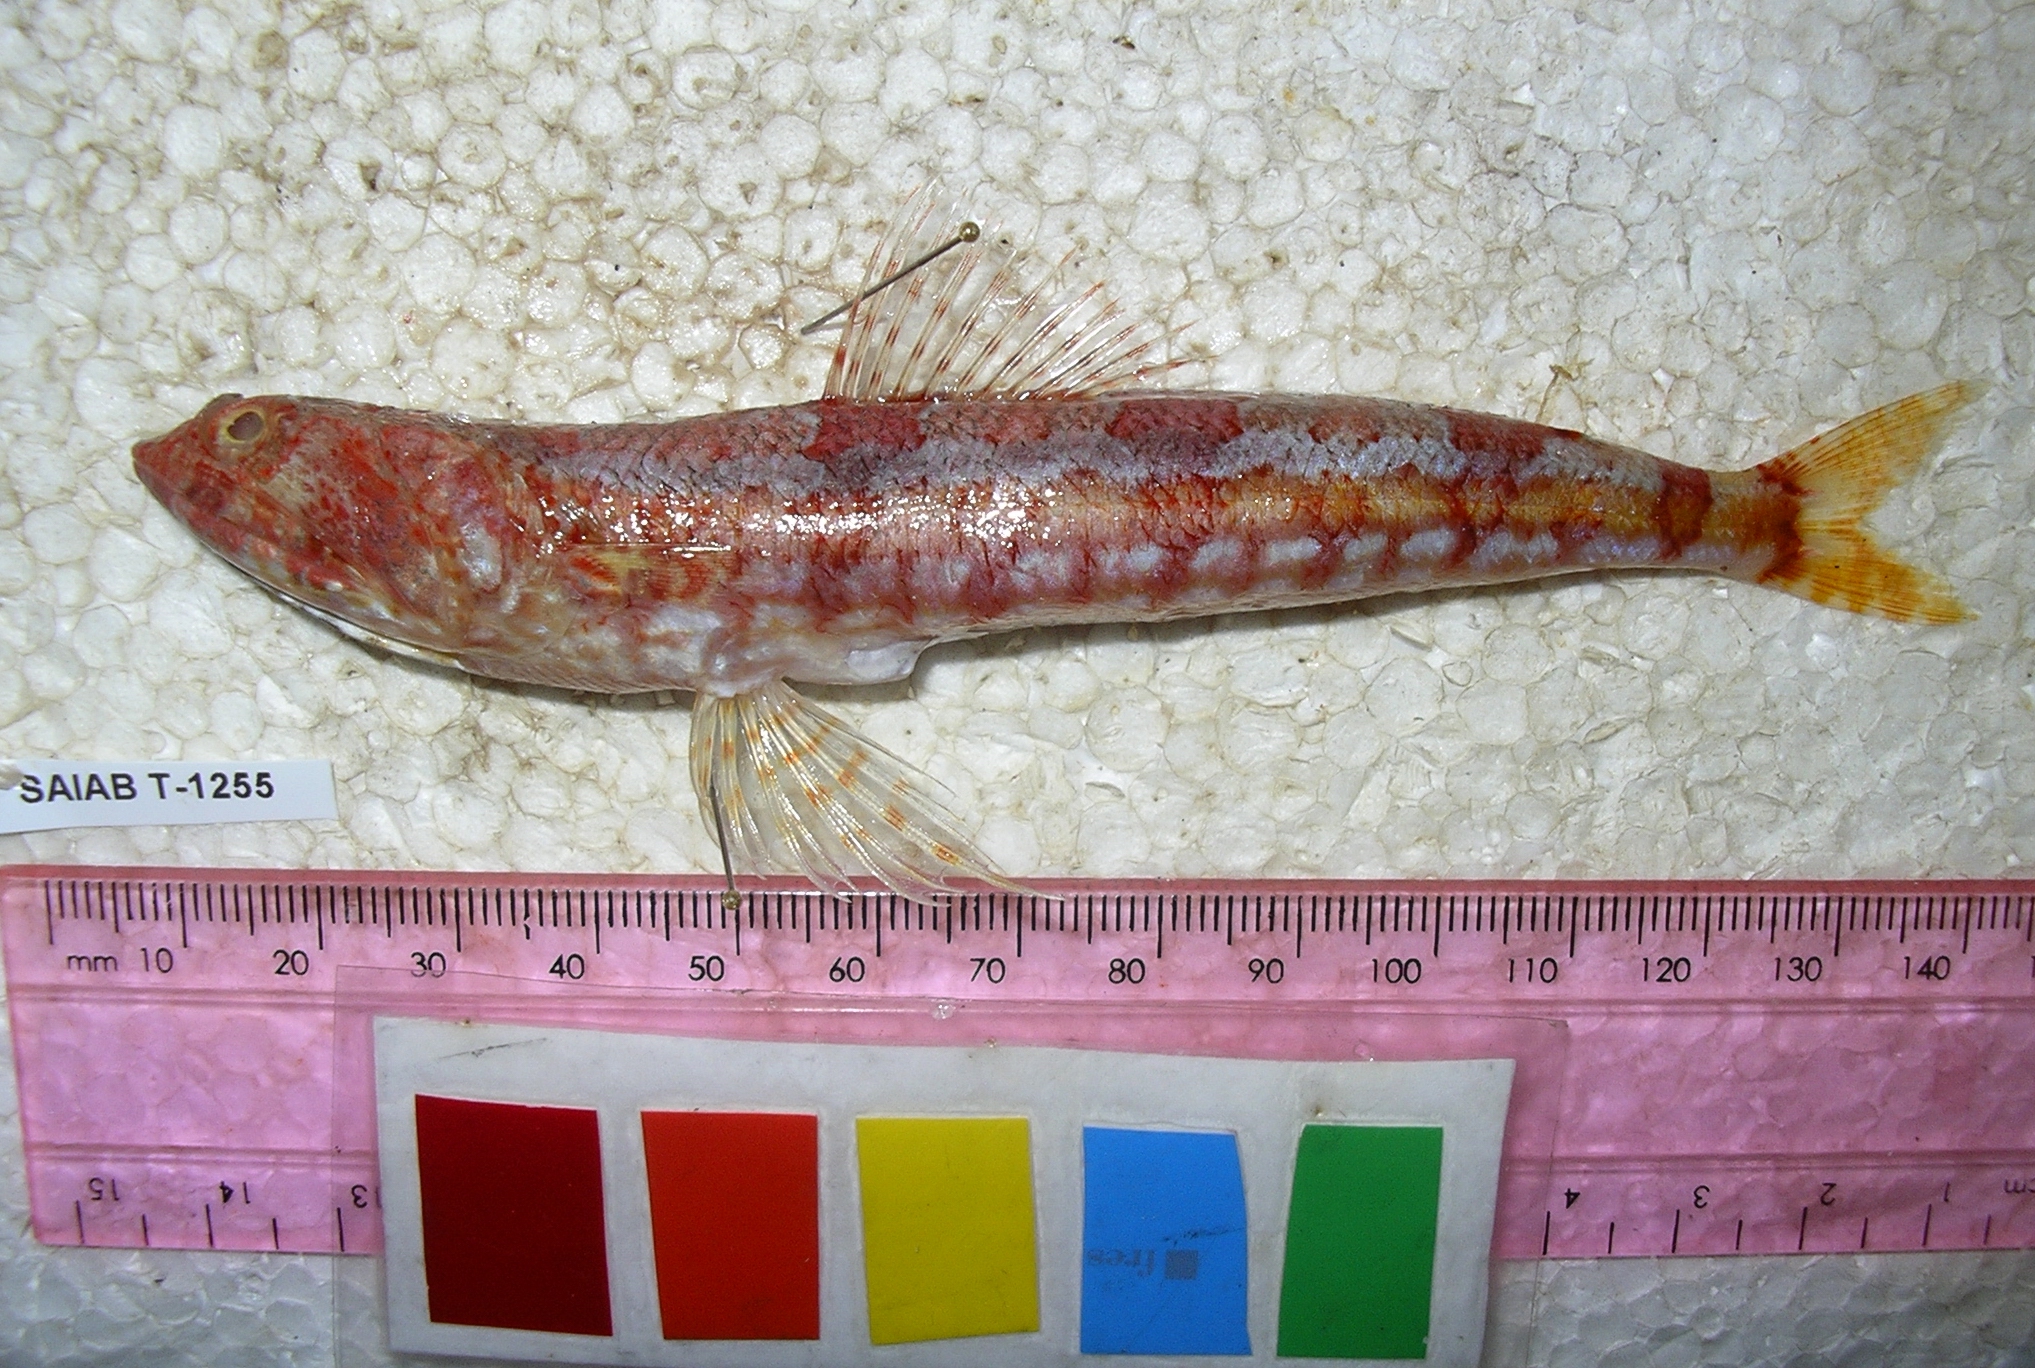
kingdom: Animalia
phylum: Chordata
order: Aulopiformes
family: Synodontidae
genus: Synodus
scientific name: Synodus variegatus
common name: Variegated lizardfish
